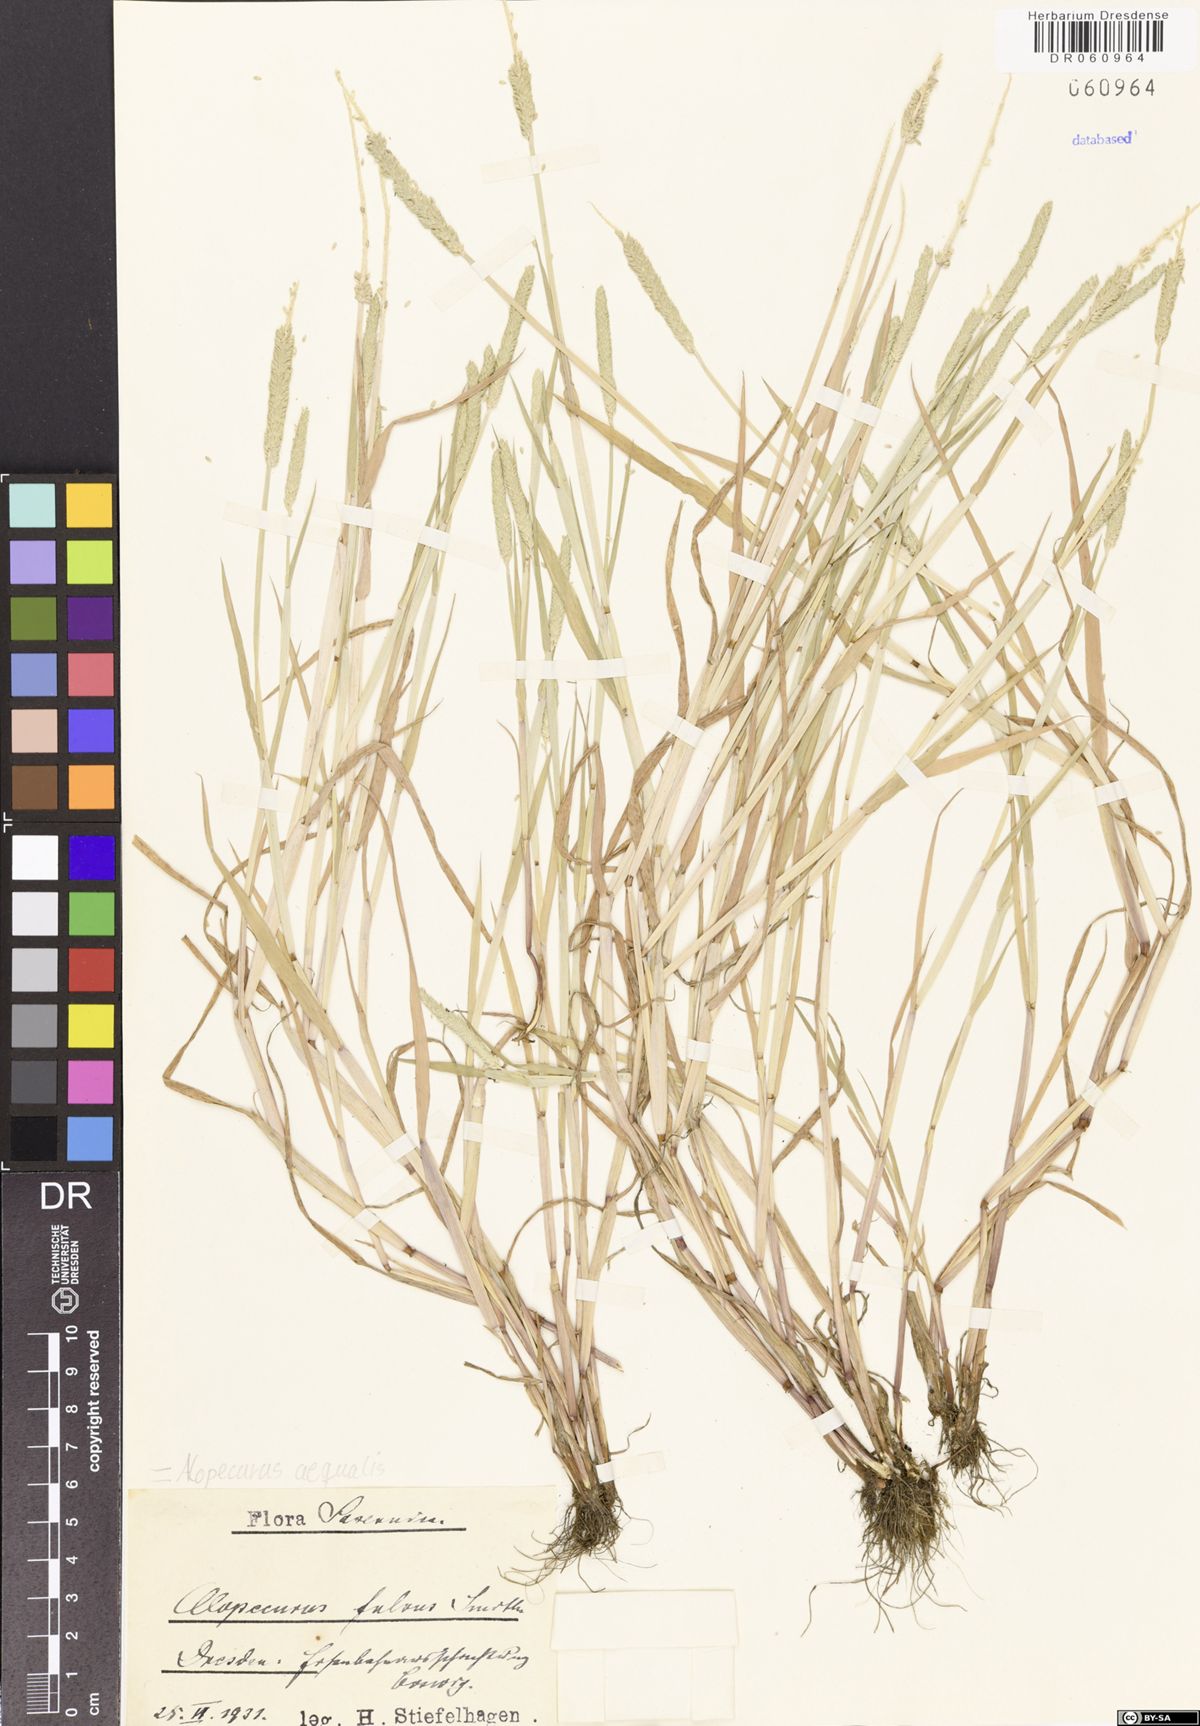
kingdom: Plantae
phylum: Tracheophyta
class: Liliopsida
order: Poales
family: Poaceae
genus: Alopecurus
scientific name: Alopecurus aequalis
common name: Orange foxtail
